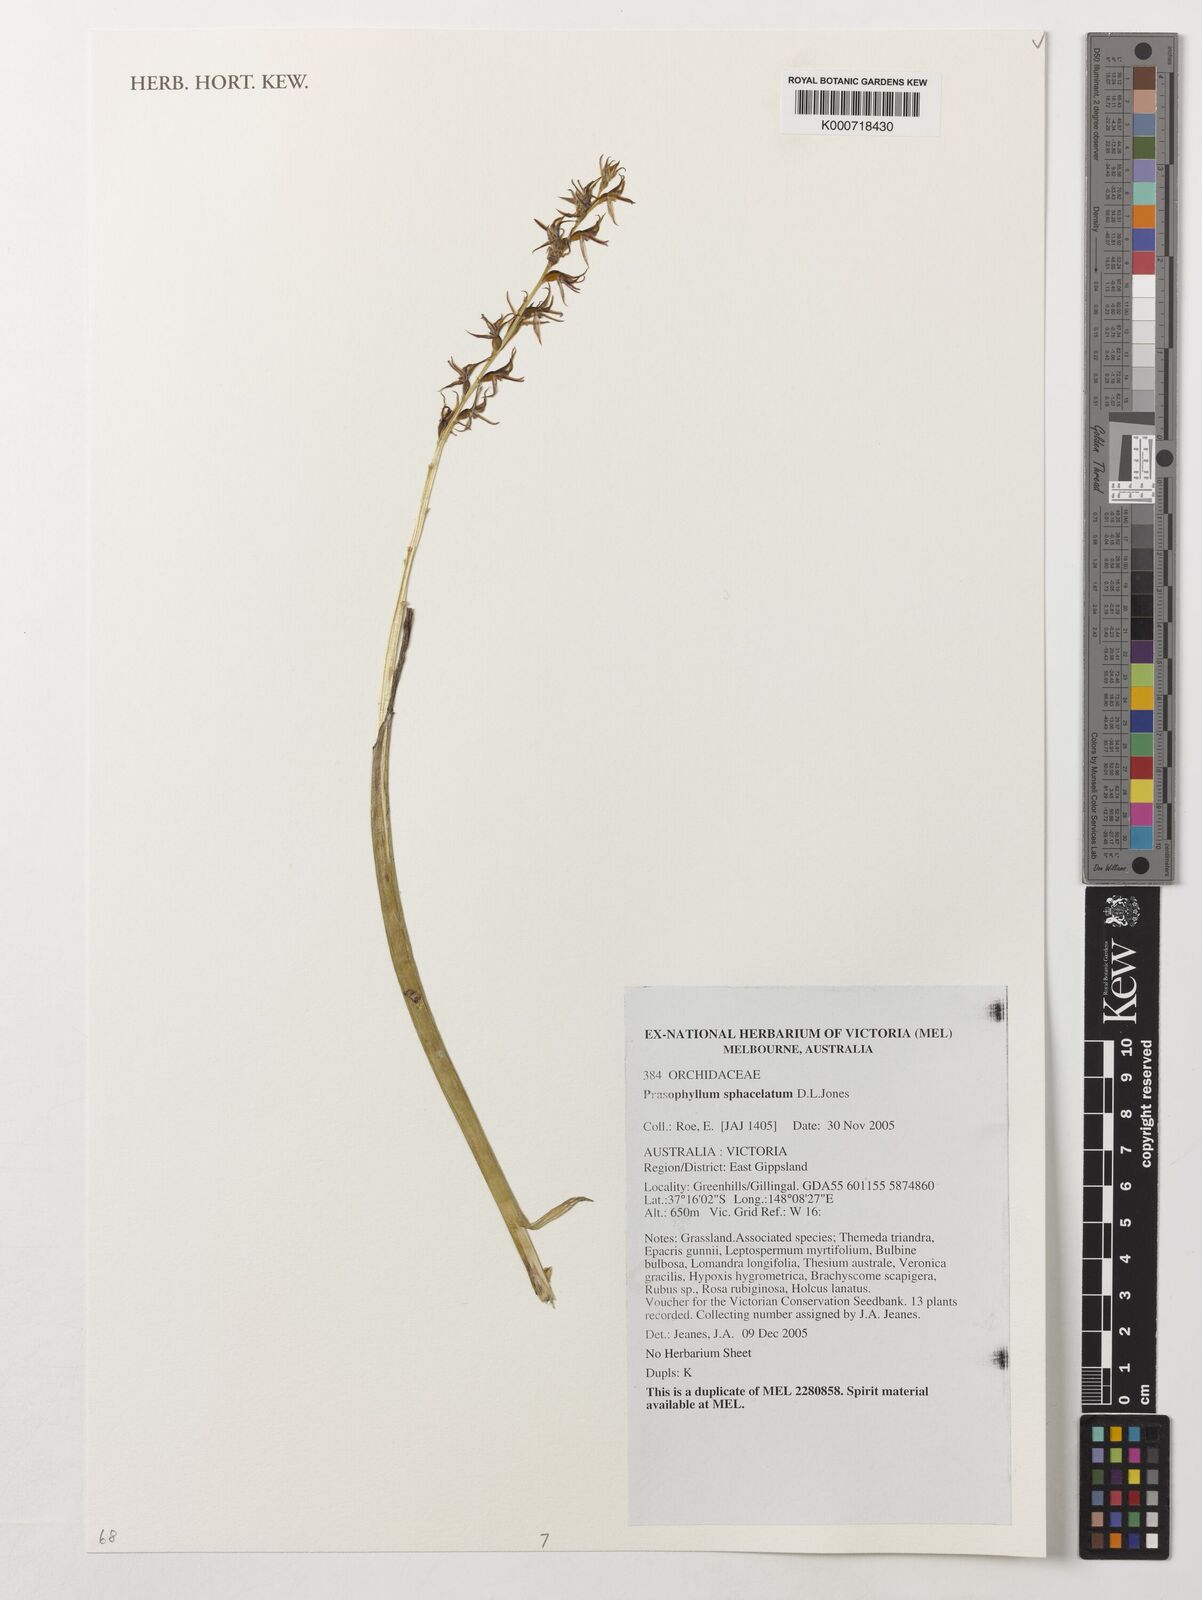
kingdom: Plantae
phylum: Tracheophyta
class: Liliopsida
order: Asparagales
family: Orchidaceae
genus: Prasophyllum
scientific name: Prasophyllum sphacelatum
